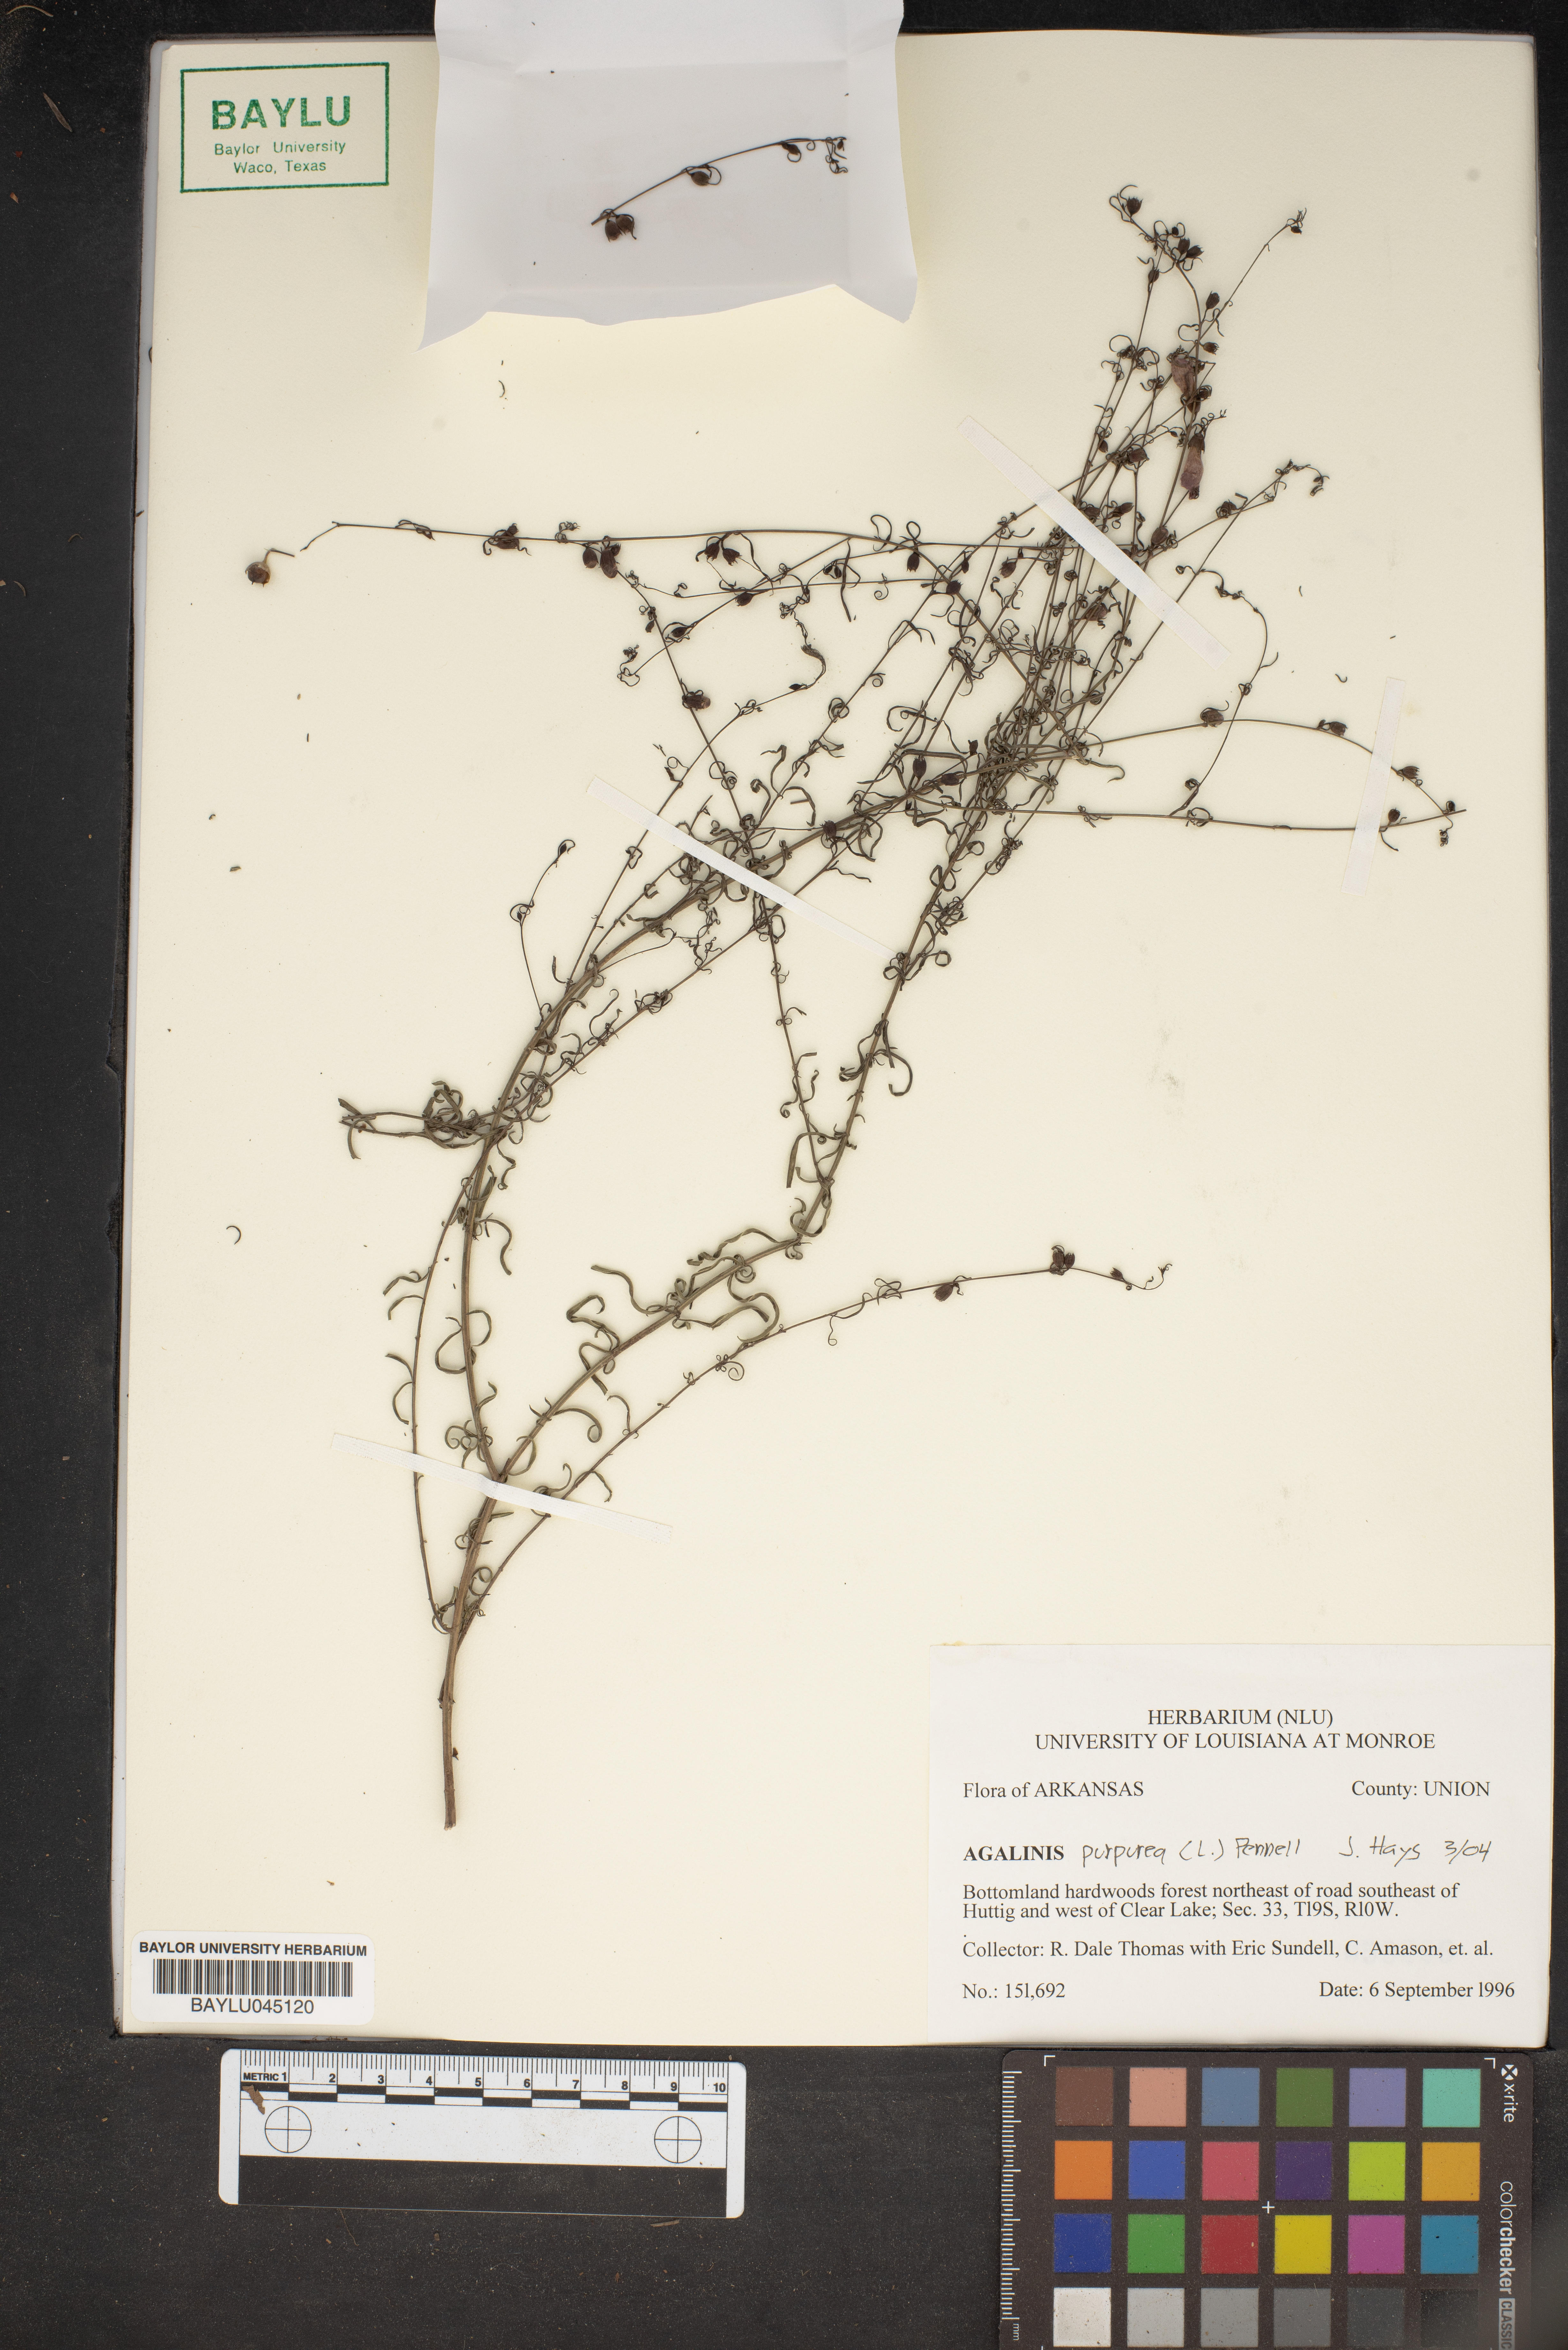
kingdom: Plantae
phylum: Tracheophyta
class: Magnoliopsida
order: Lamiales
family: Orobanchaceae
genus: Agalinis
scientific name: Agalinis purpurea
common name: Purple false foxglove
